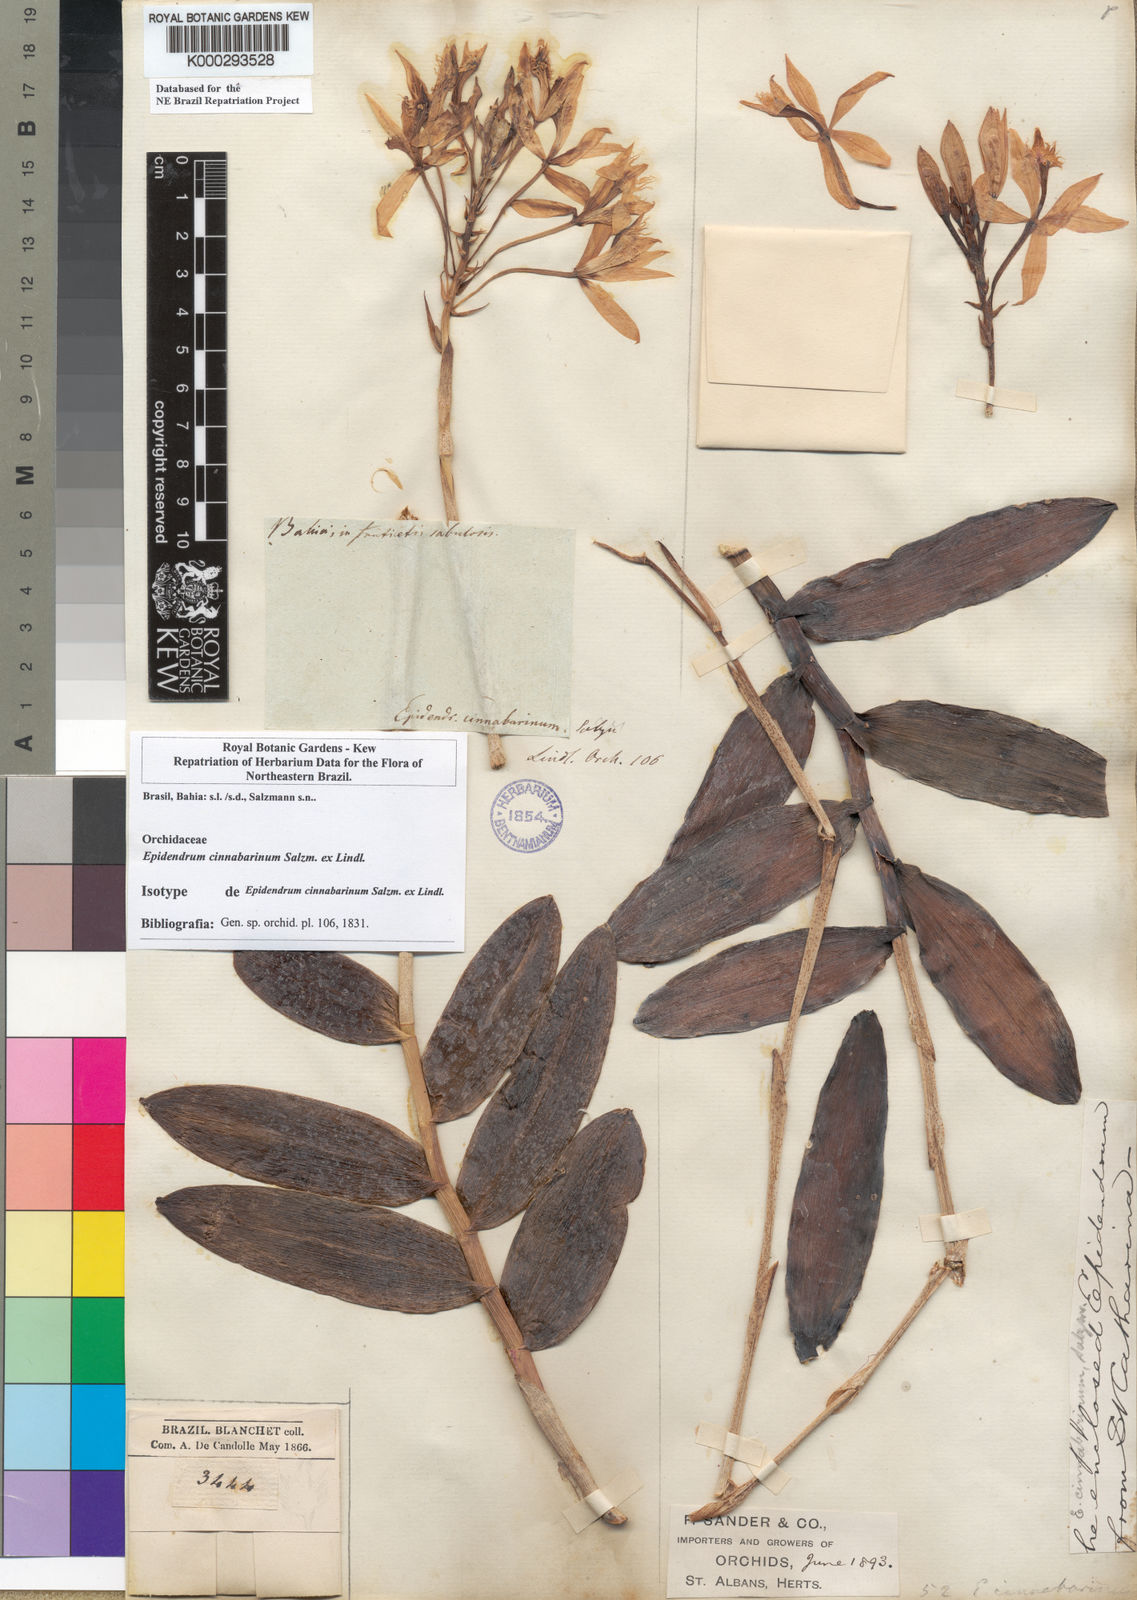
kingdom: Plantae
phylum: Tracheophyta
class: Liliopsida
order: Asparagales
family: Orchidaceae
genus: Epidendrum
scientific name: Epidendrum cinnabarinum
